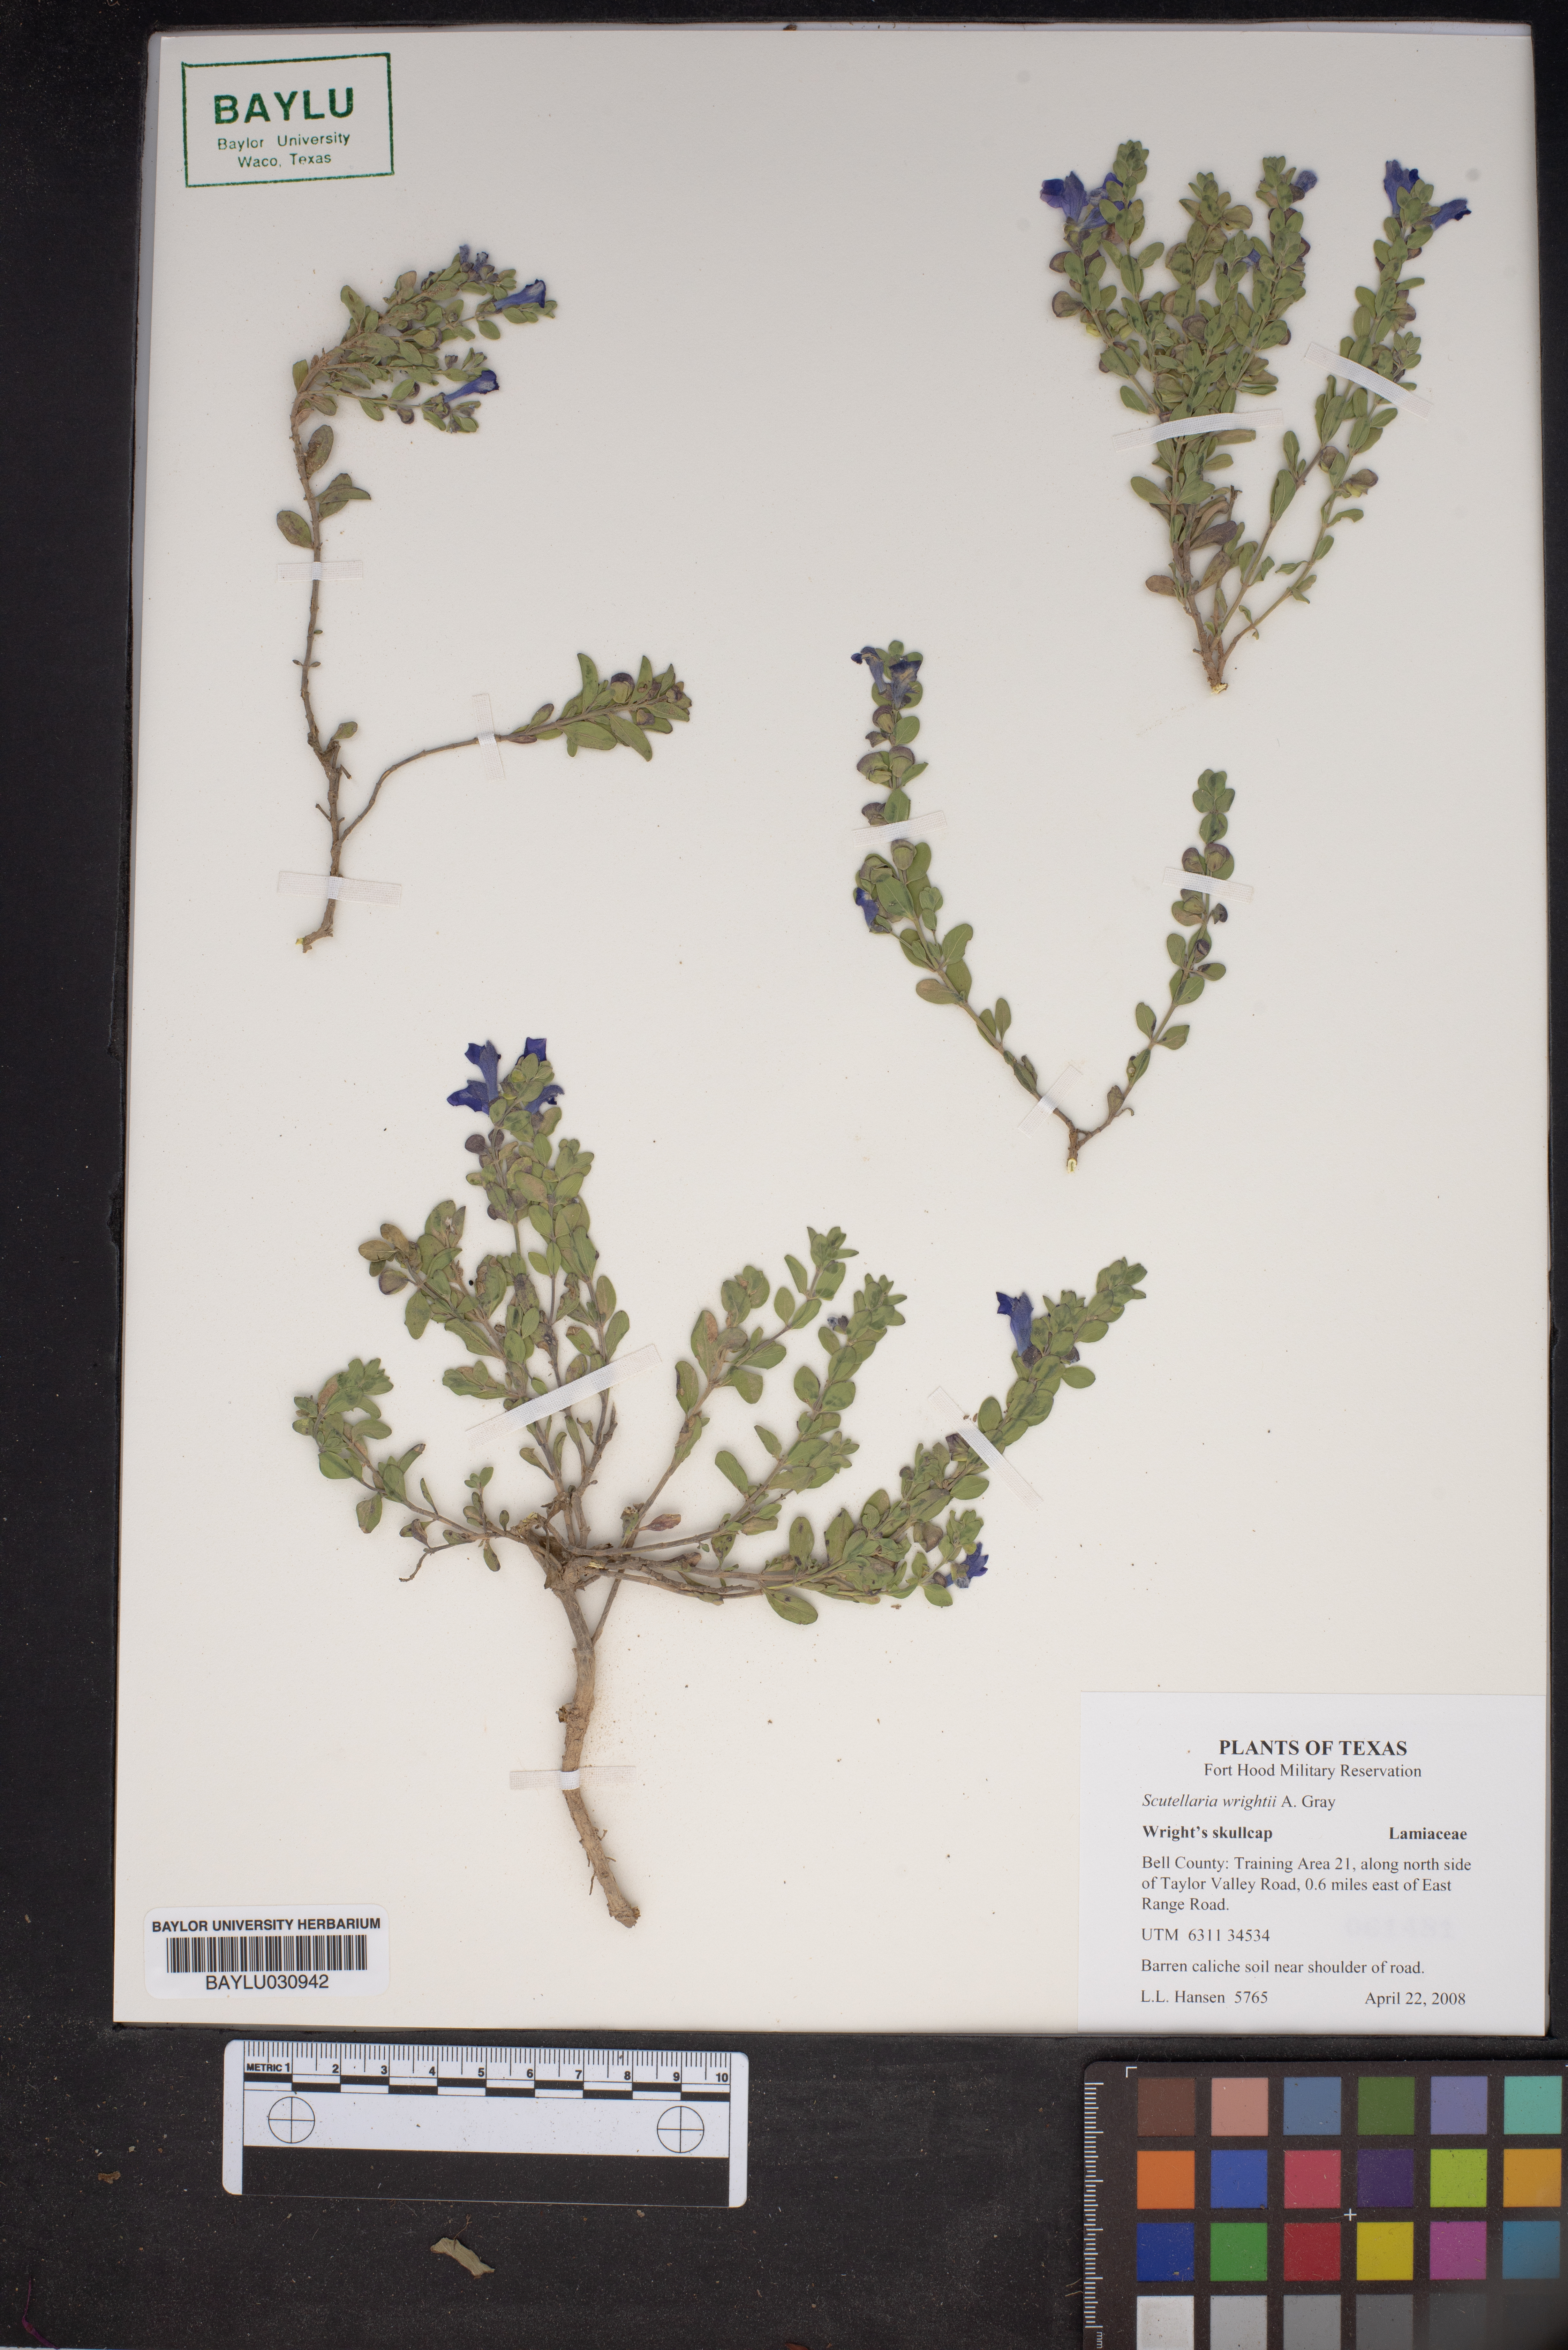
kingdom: Plantae
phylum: Tracheophyta
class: Magnoliopsida
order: Lamiales
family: Lamiaceae
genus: Scutellaria
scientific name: Scutellaria wrightii
